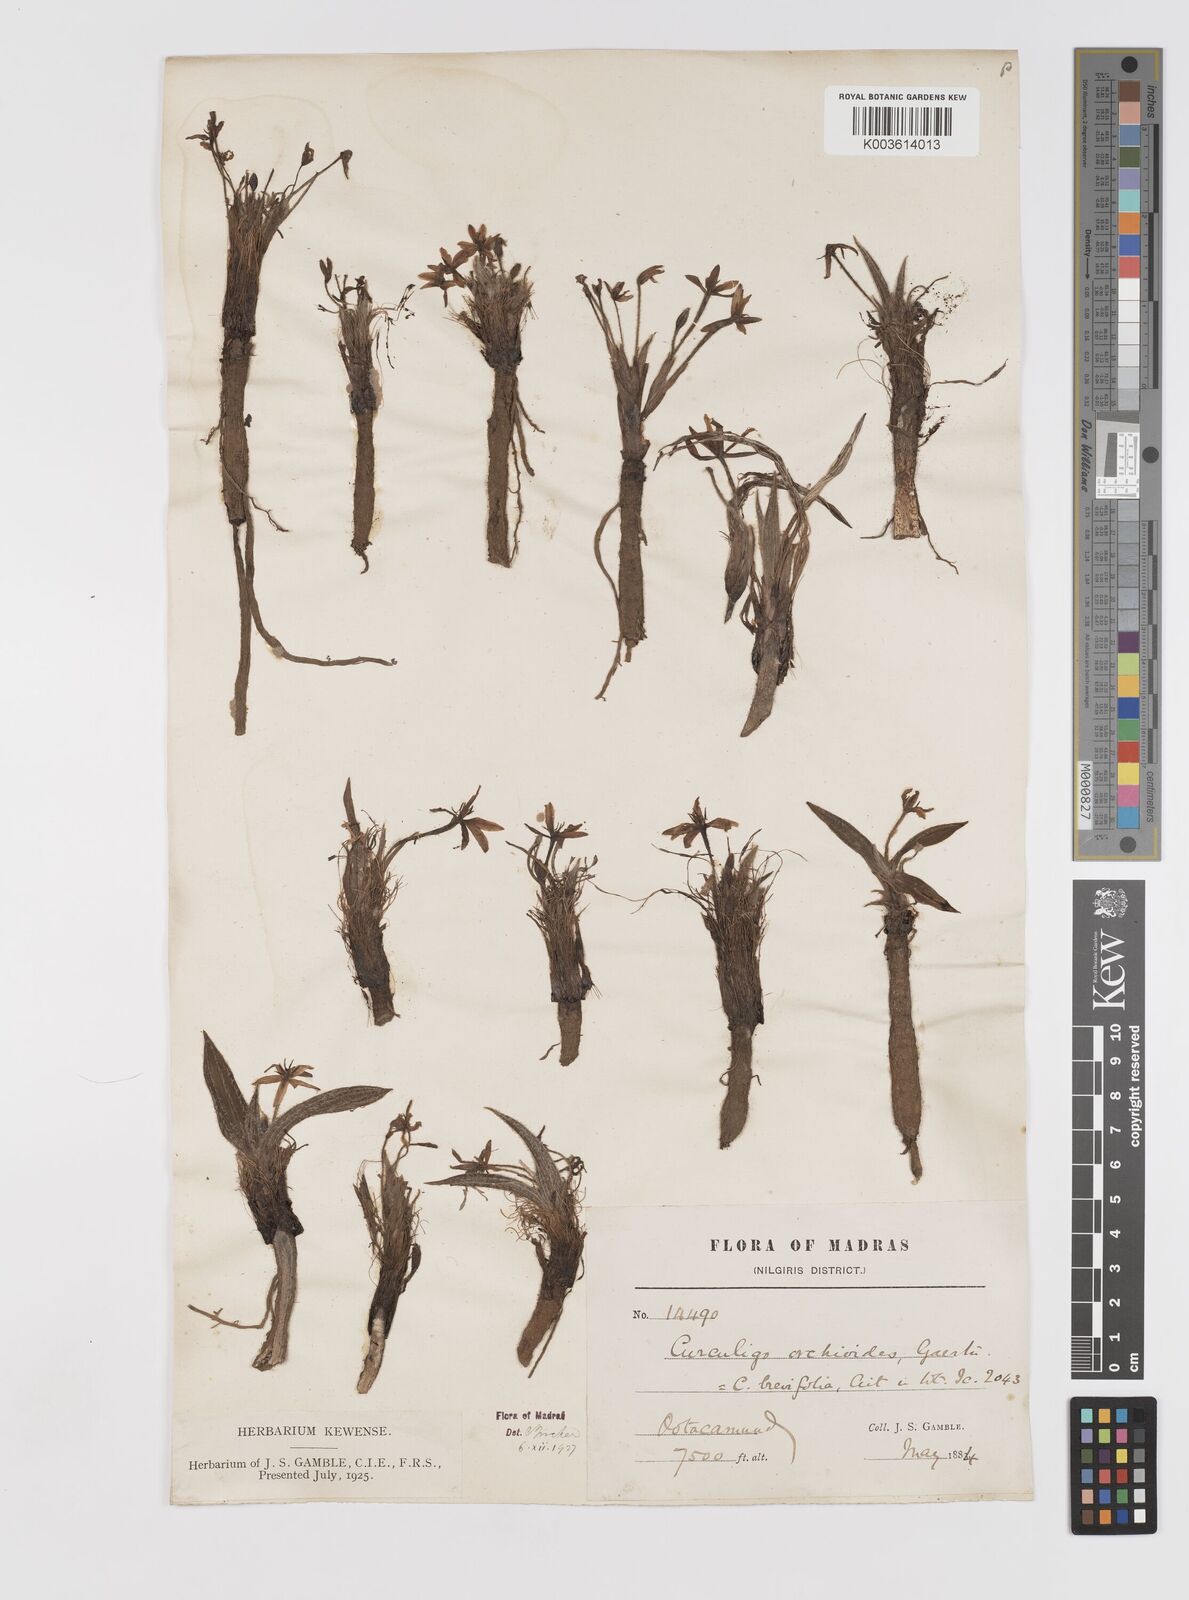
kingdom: Plantae
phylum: Tracheophyta
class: Liliopsida
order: Asparagales
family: Hypoxidaceae
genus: Curculigo
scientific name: Curculigo orchioides
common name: Golden eye-grass
